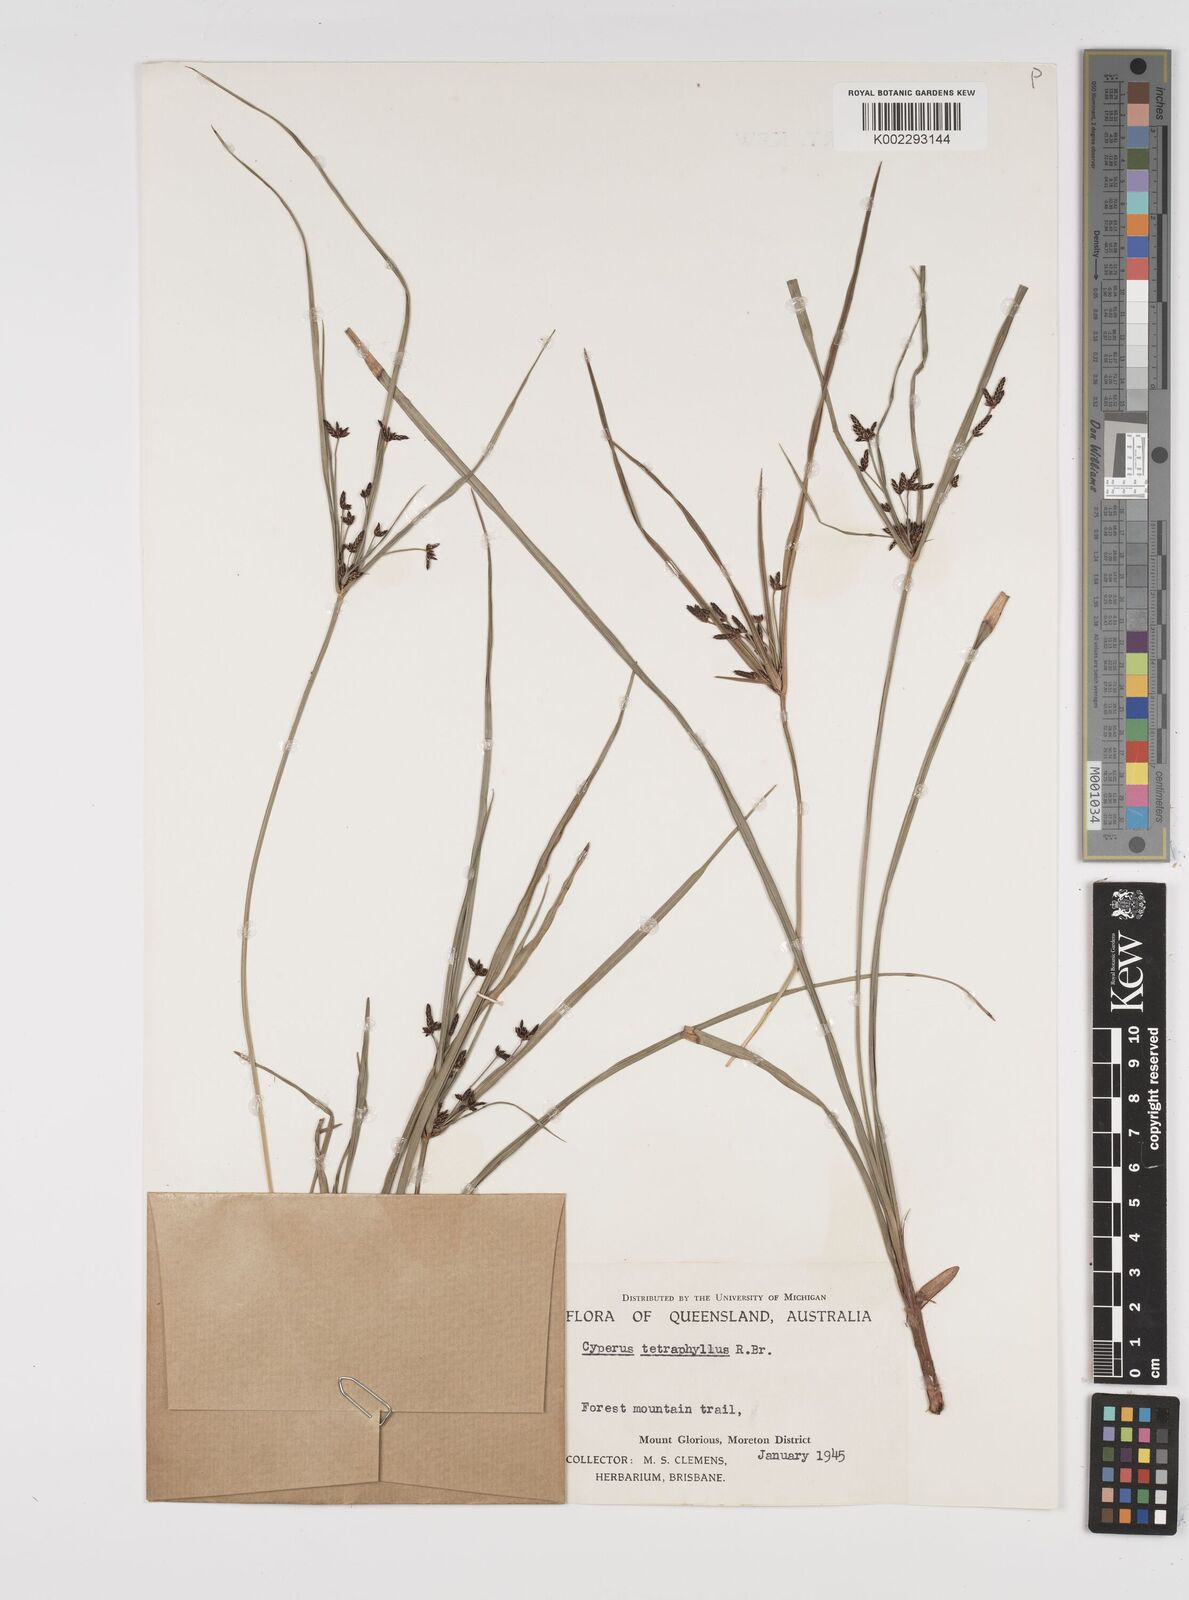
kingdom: Plantae
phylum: Tracheophyta
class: Liliopsida
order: Poales
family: Cyperaceae
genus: Cyperus
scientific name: Cyperus tetraphyllus
